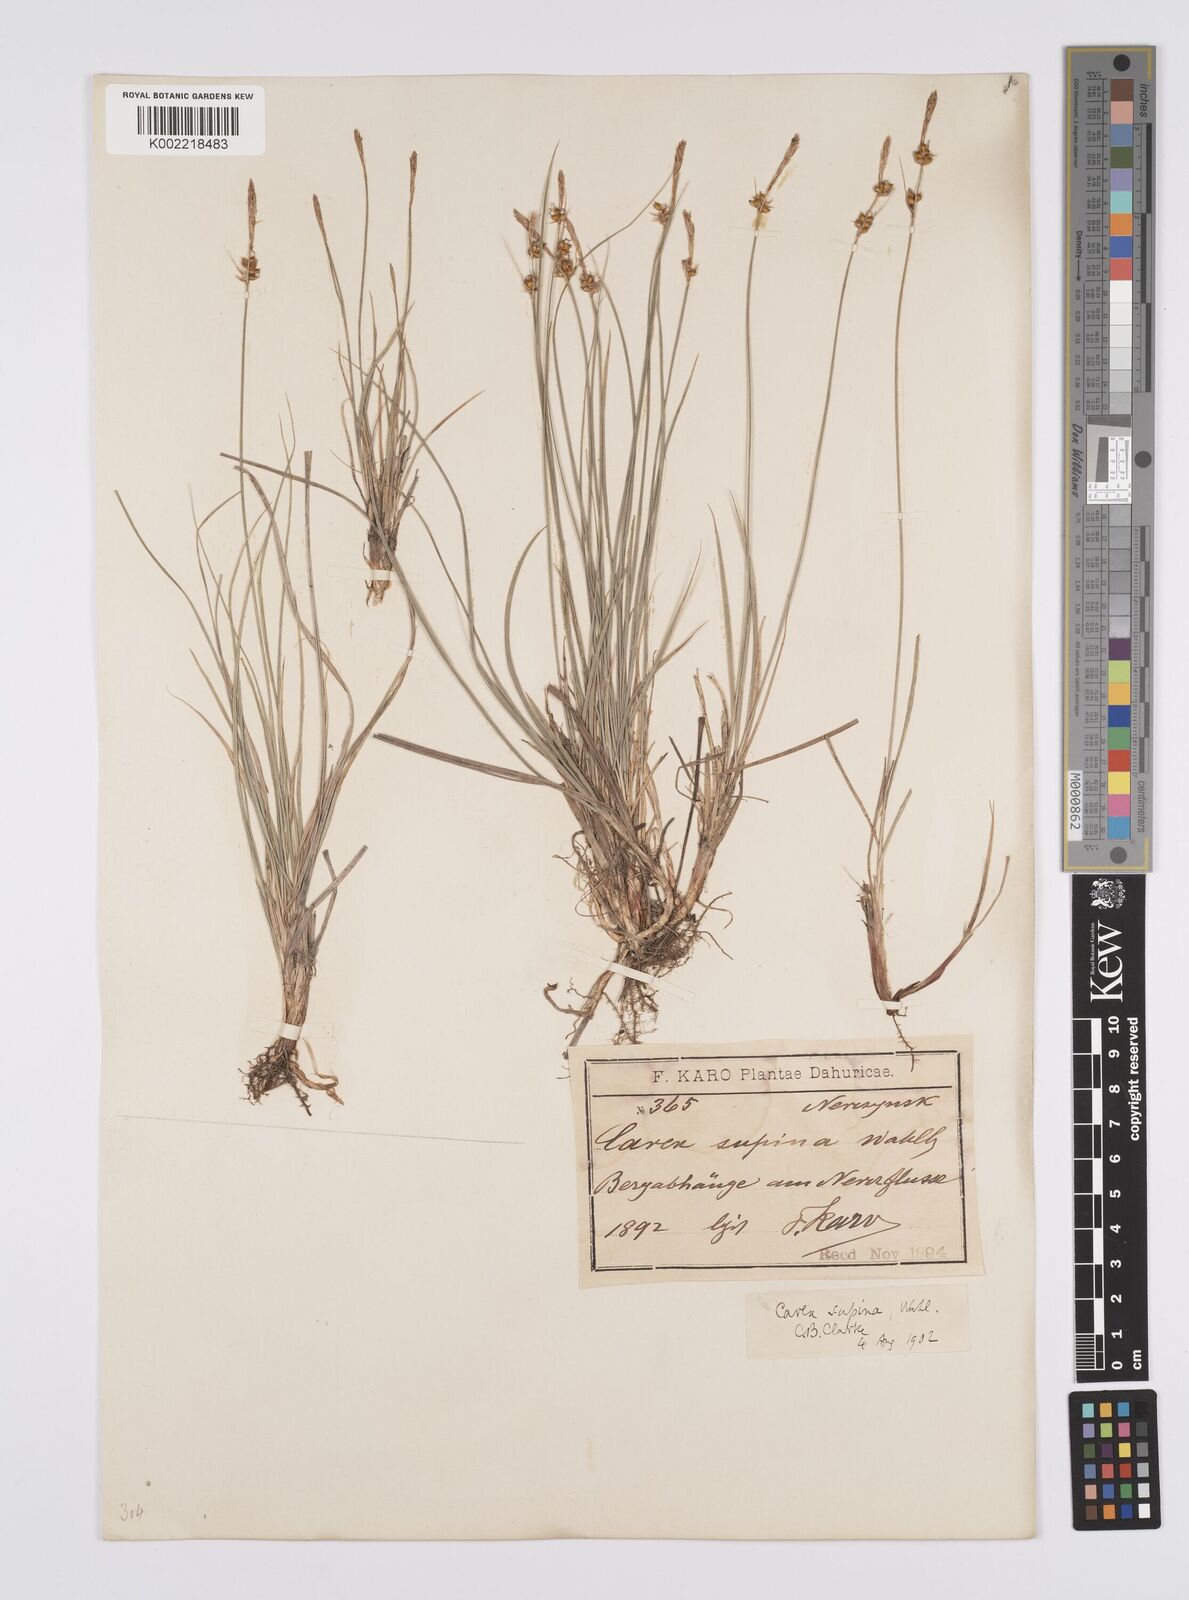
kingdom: Plantae
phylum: Tracheophyta
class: Liliopsida
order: Poales
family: Cyperaceae
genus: Carex
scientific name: Carex supina
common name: Lying-back sedge
